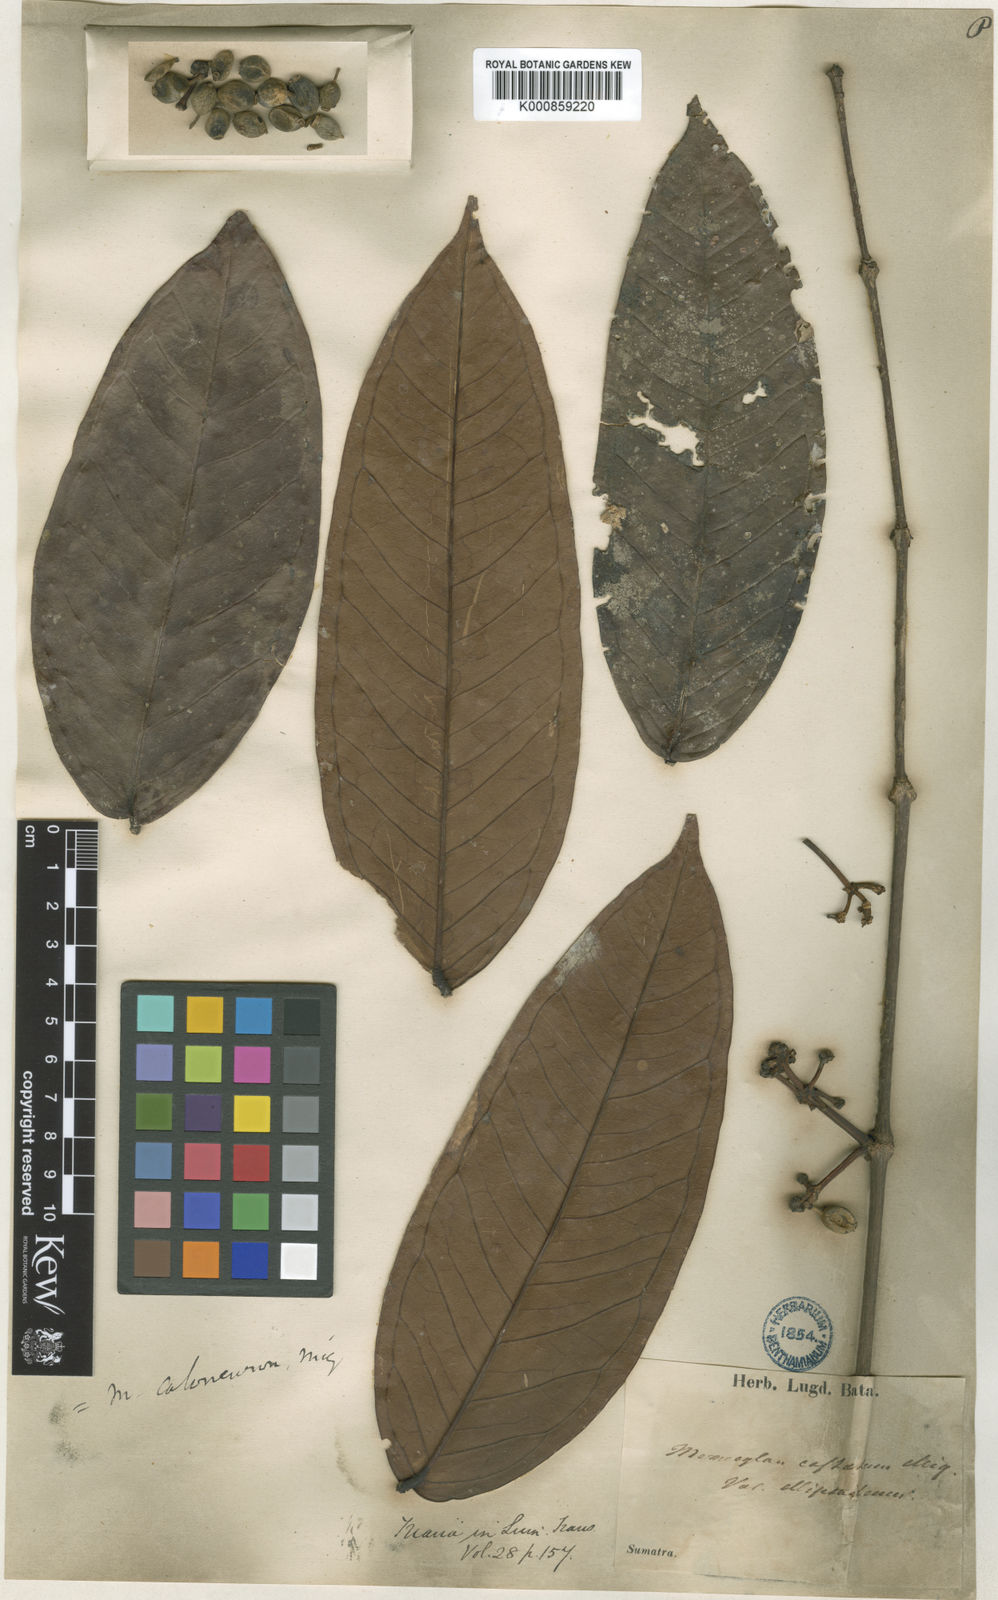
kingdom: Plantae
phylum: Tracheophyta
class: Magnoliopsida
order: Myrtales
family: Melastomataceae
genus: Memecylon
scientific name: Memecylon paniculatum
